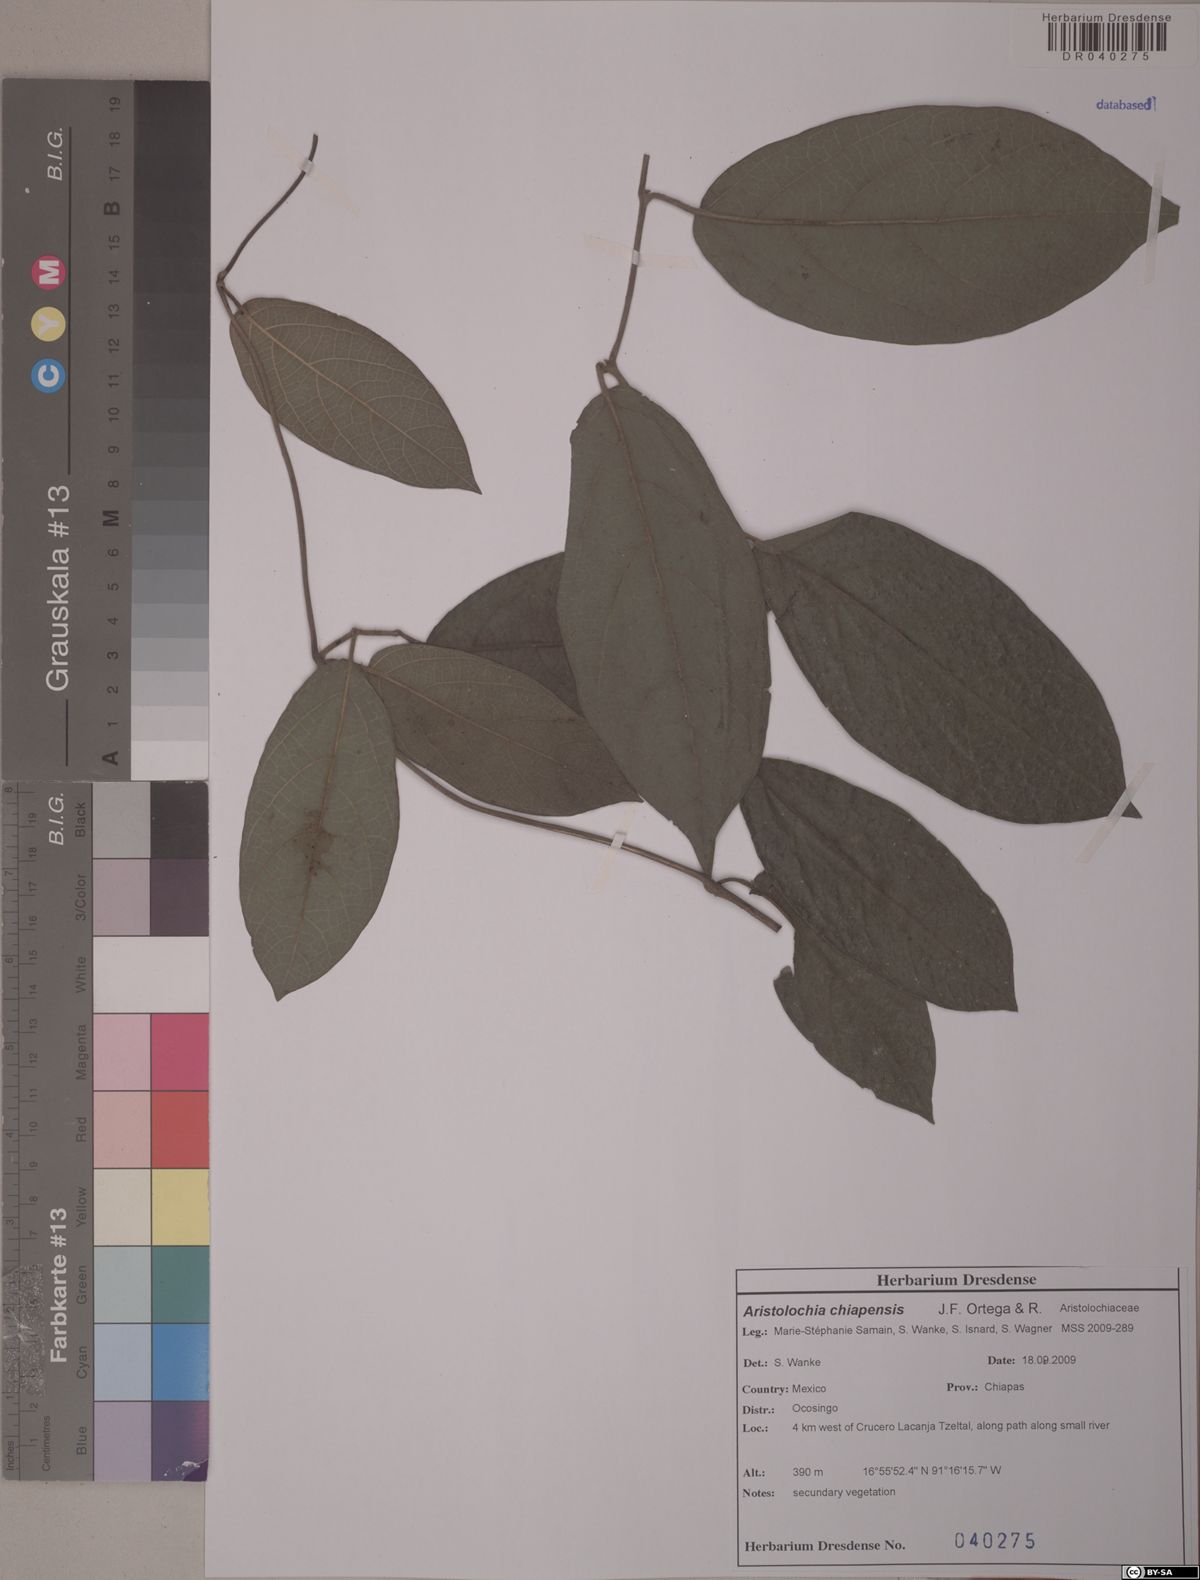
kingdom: Plantae
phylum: Tracheophyta
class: Magnoliopsida
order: Piperales
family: Aristolochiaceae
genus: Isotrema
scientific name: Isotrema paracletum
